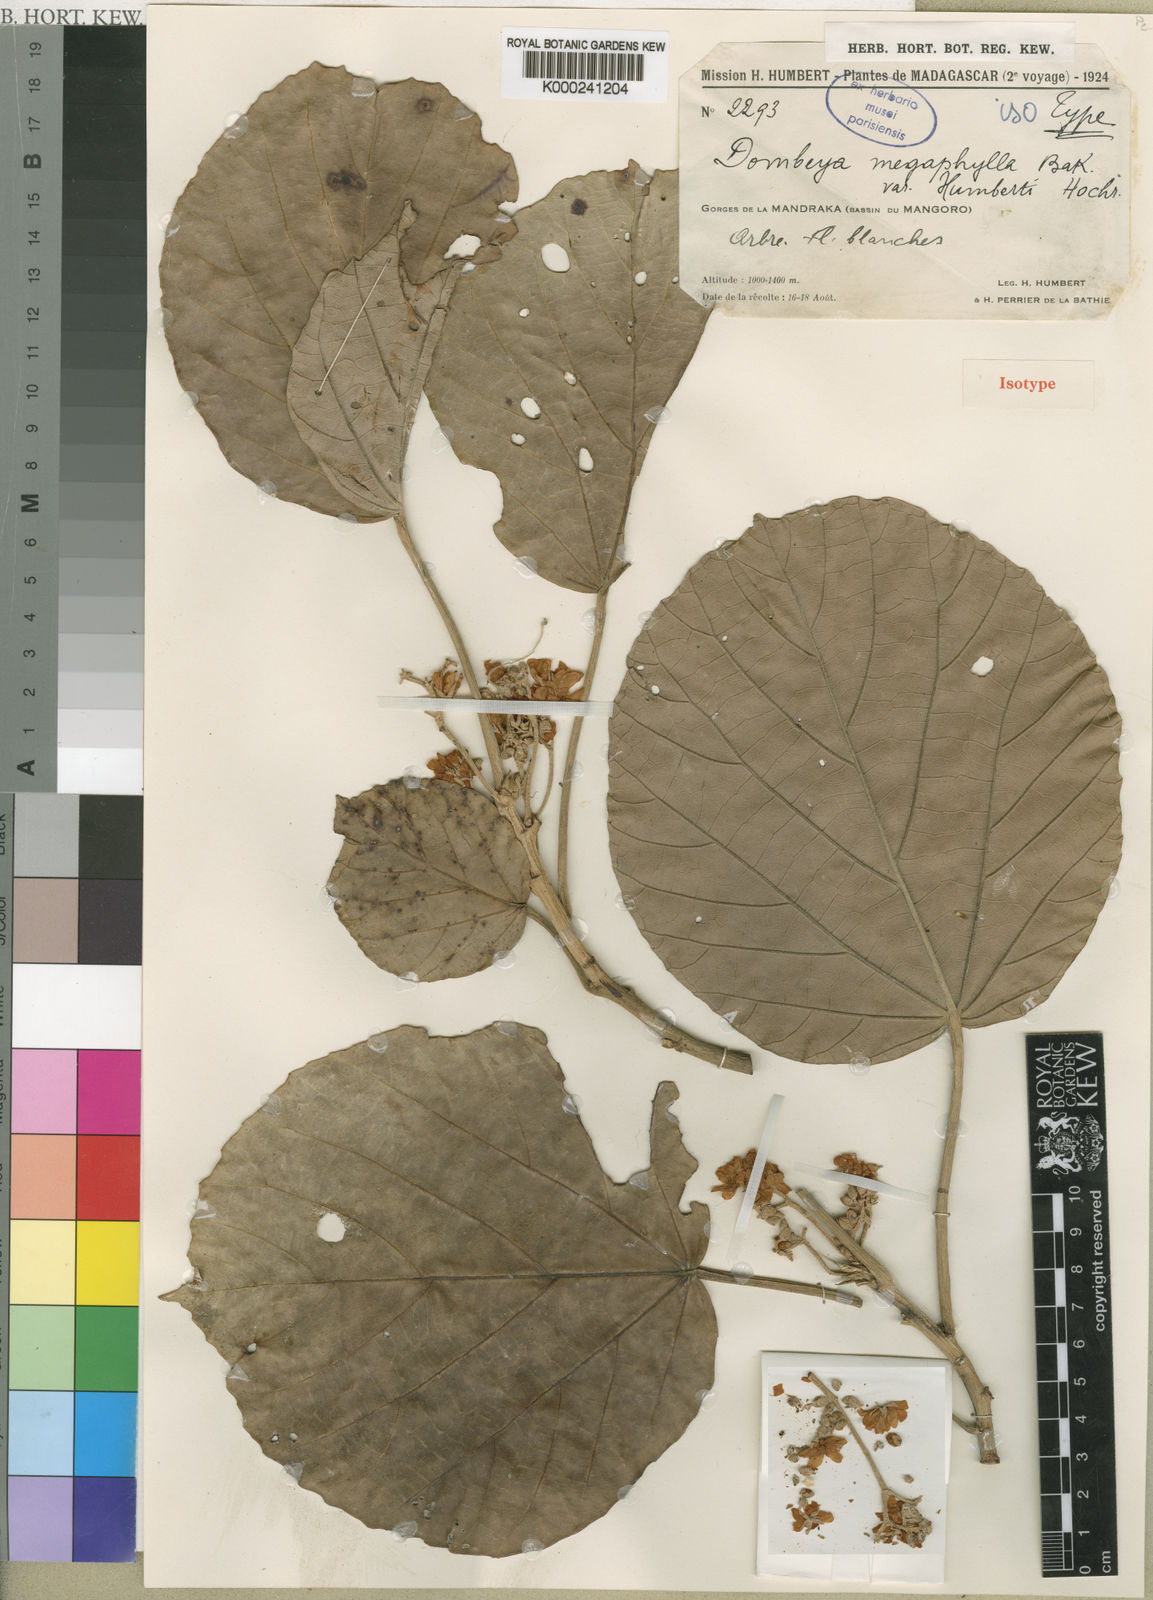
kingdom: Plantae
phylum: Tracheophyta
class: Magnoliopsida
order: Malvales
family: Malvaceae
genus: Dombeya
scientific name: Dombeya lucida
